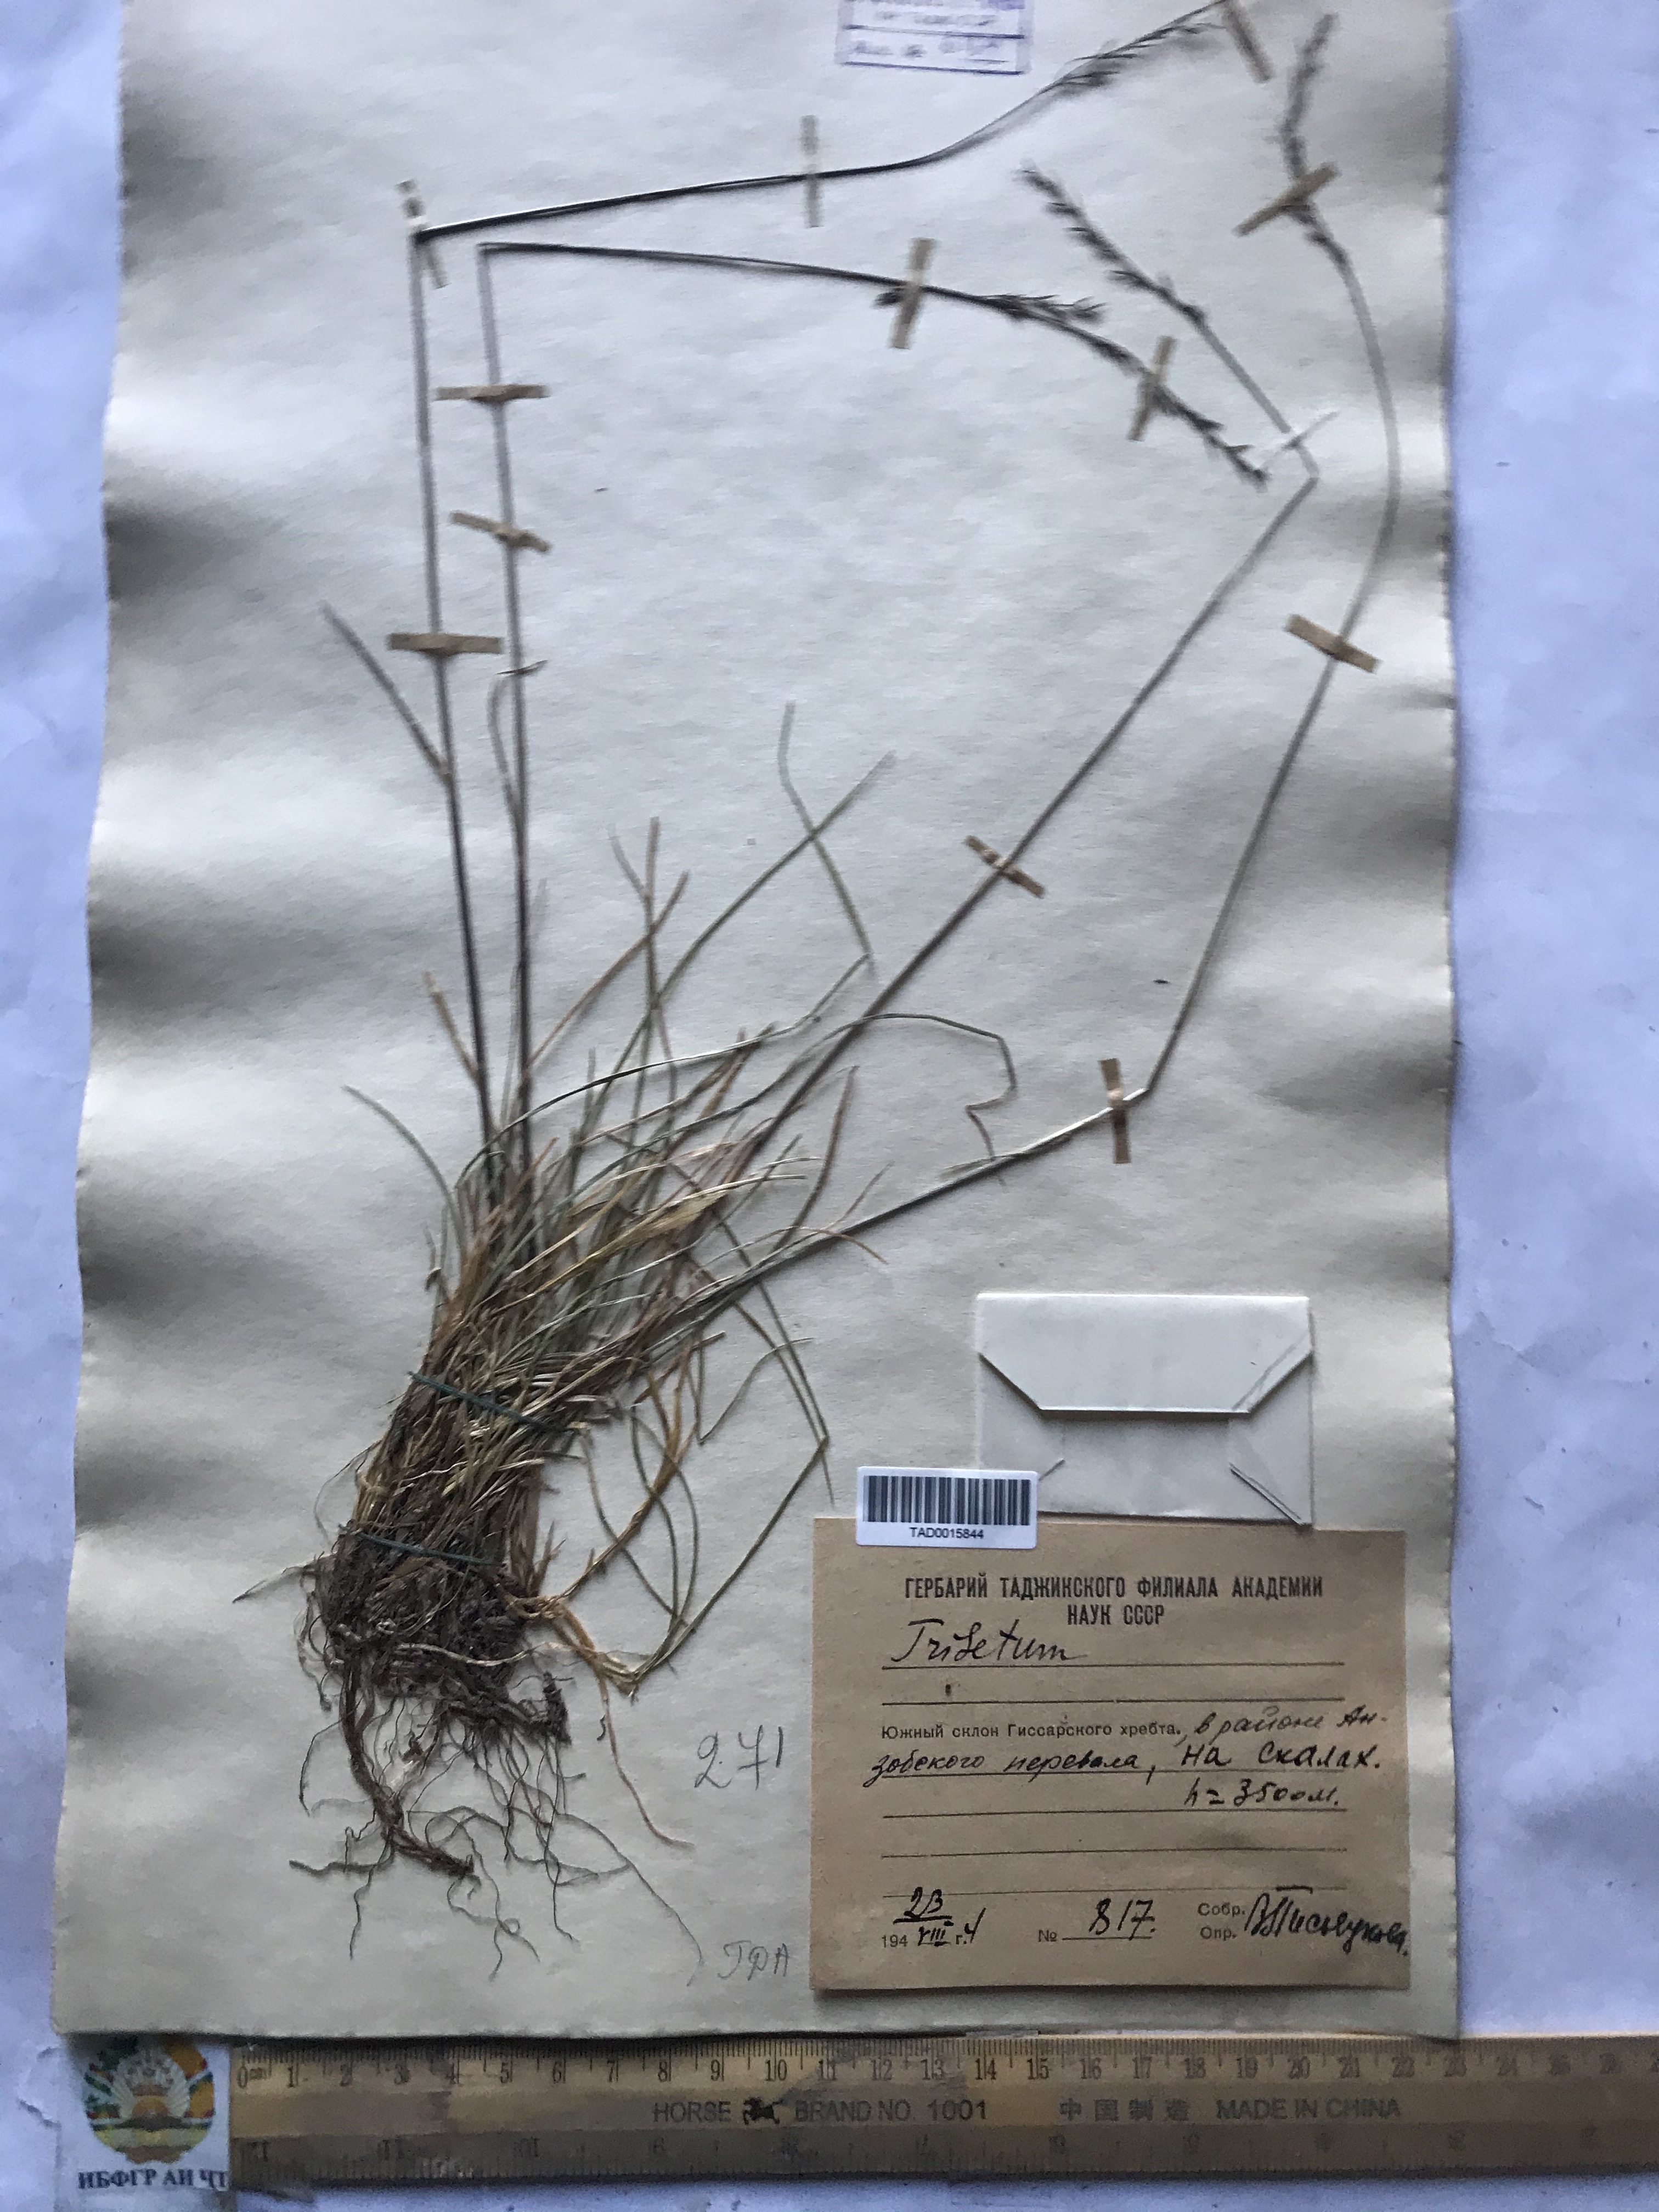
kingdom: Plantae
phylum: Tracheophyta
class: Liliopsida
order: Poales
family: Poaceae
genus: Festuca
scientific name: Festuca rubra
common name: Red fescue
